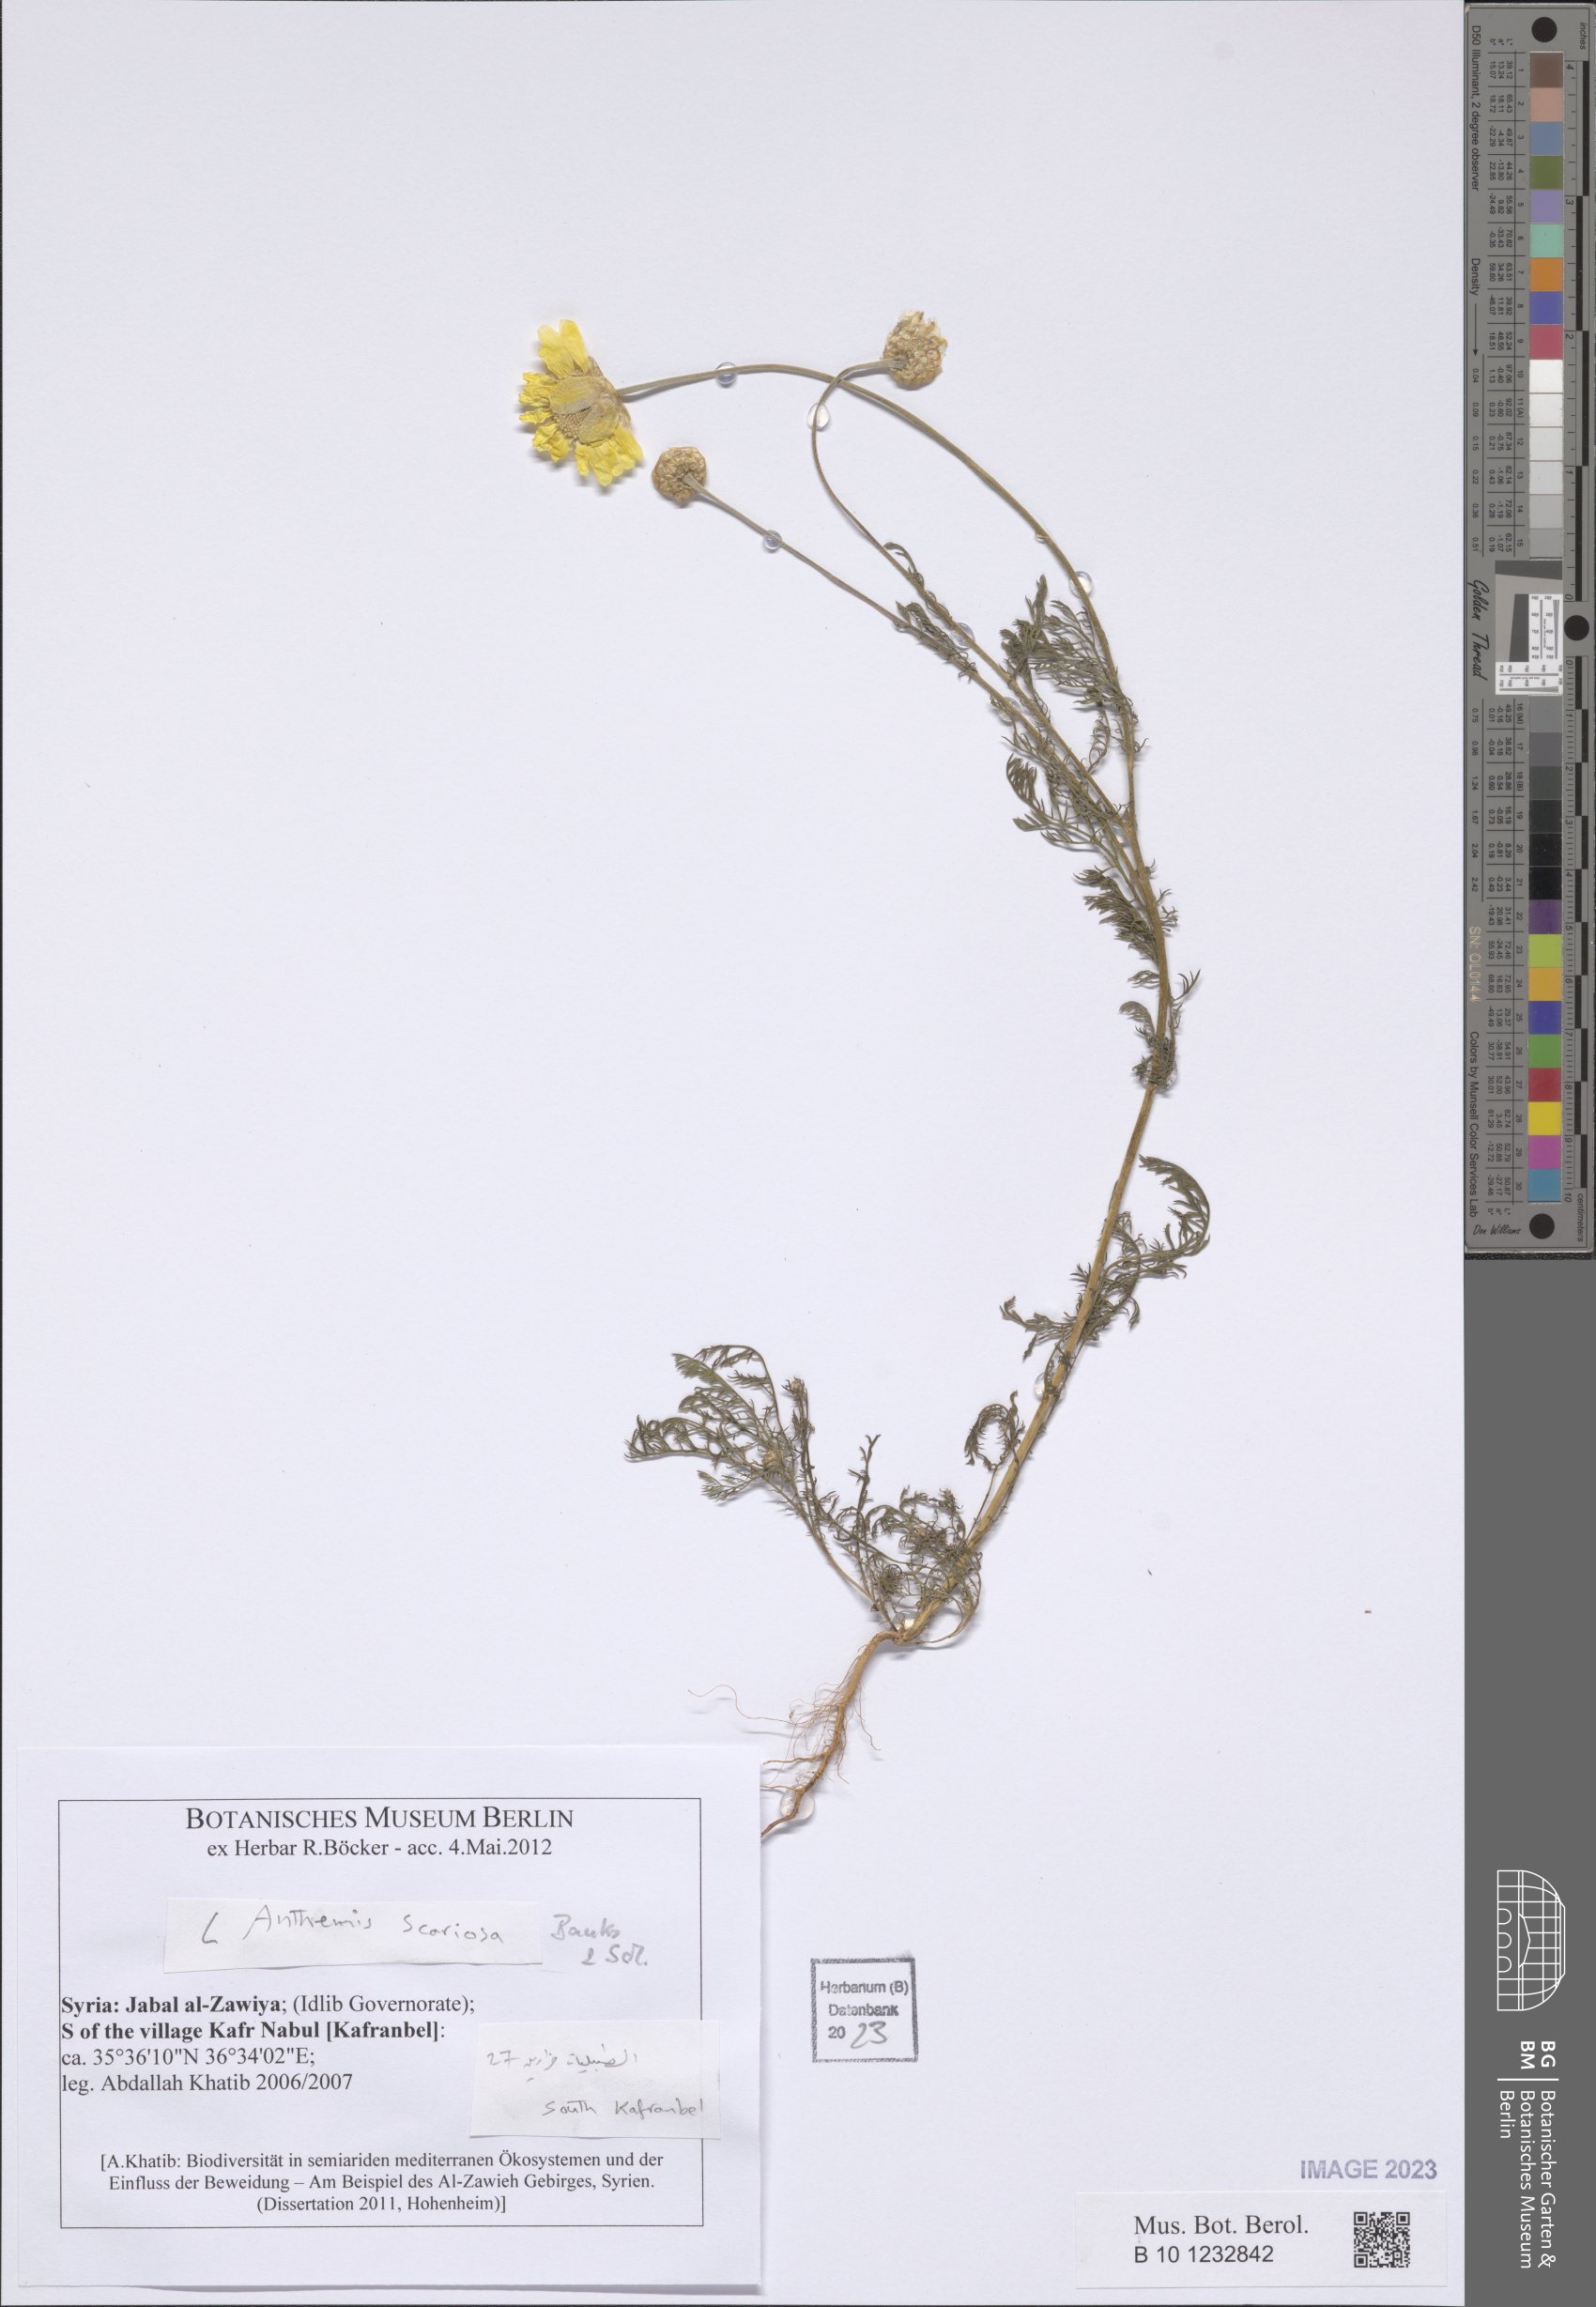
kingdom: Plantae
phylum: Tracheophyta
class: Magnoliopsida
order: Asterales
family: Asteraceae
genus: Anthemis
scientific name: Anthemis scariosa
